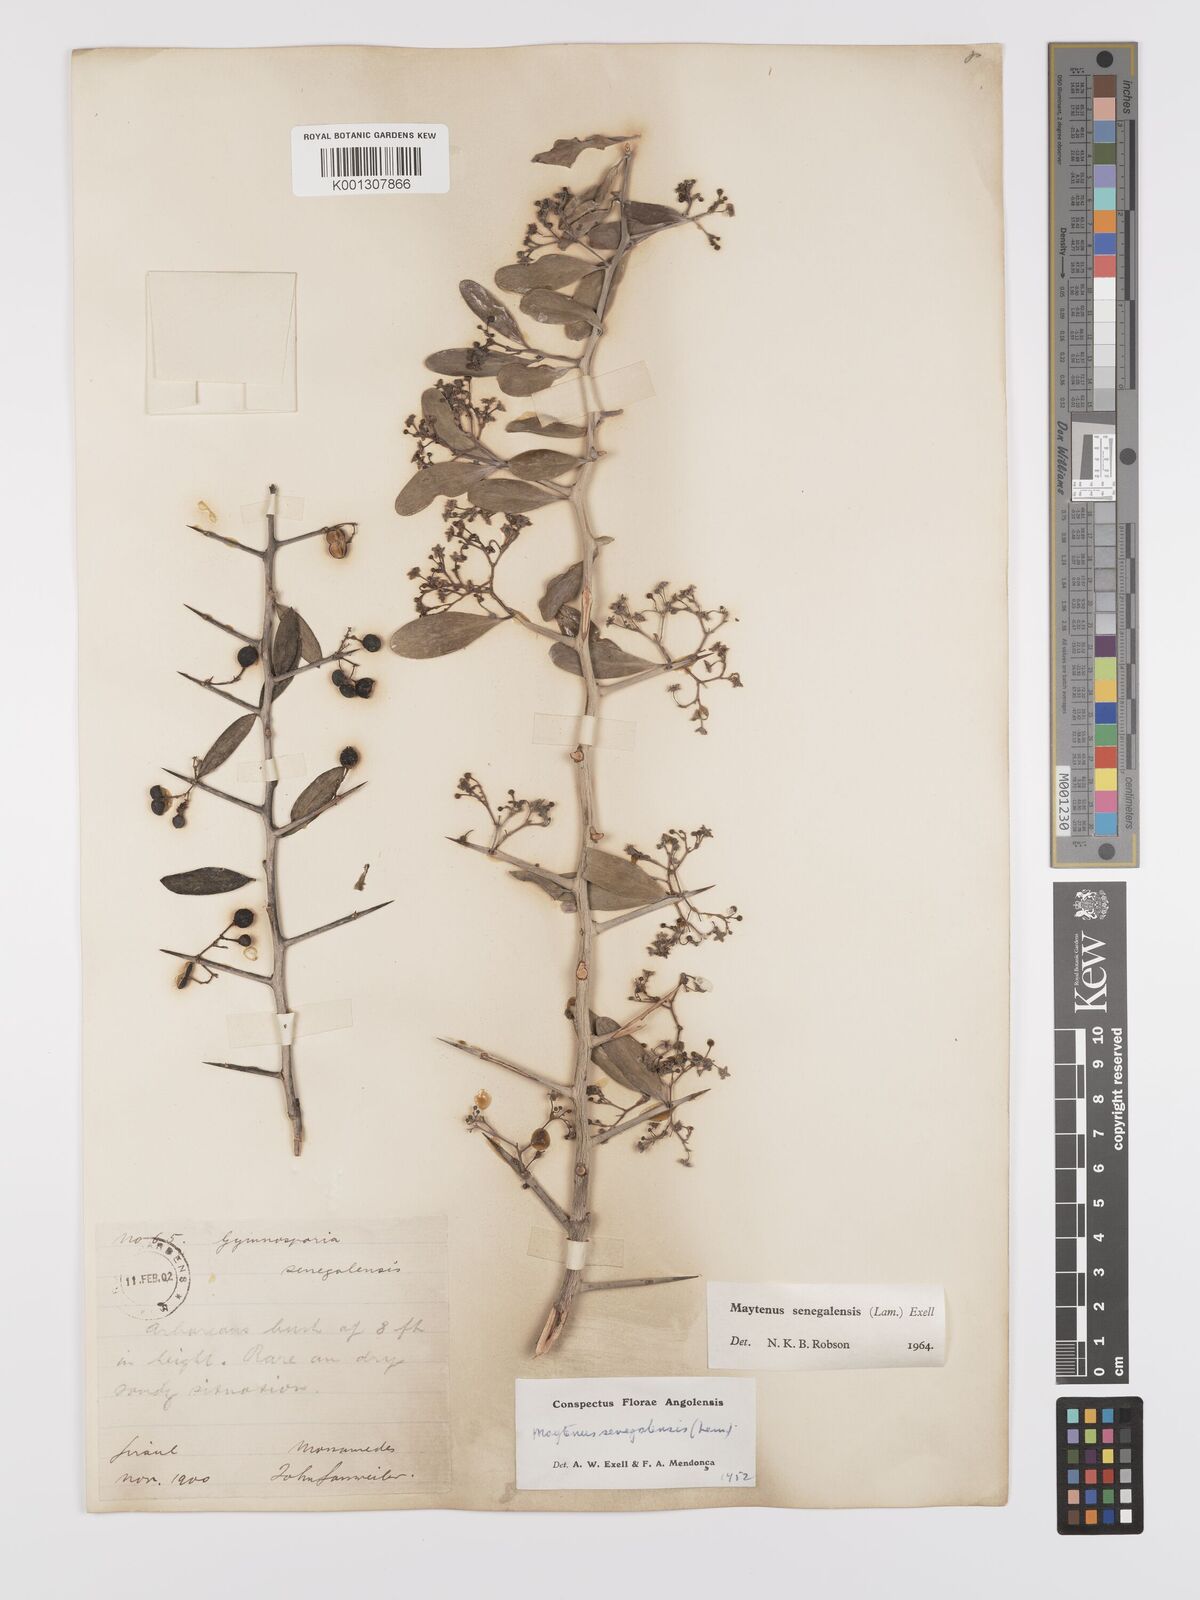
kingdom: Plantae
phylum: Tracheophyta
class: Magnoliopsida
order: Celastrales
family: Celastraceae
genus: Gymnosporia
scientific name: Gymnosporia senegalensis
